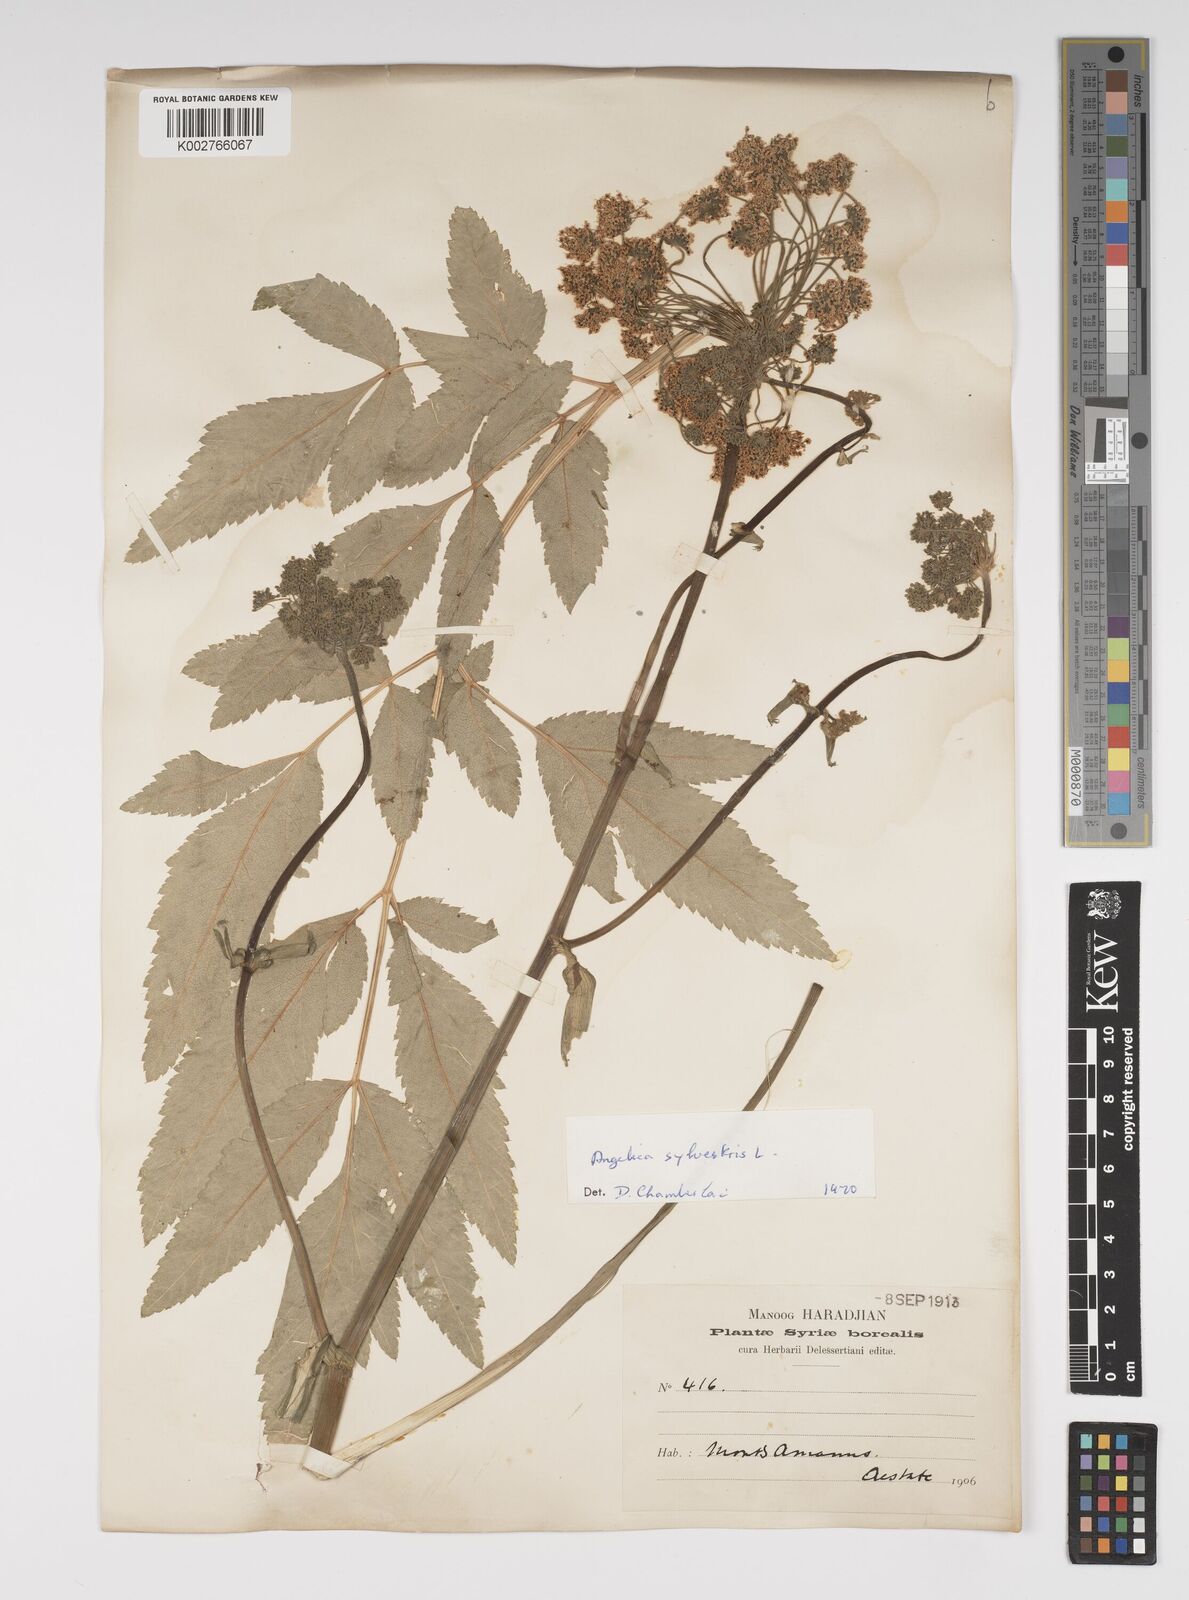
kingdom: Plantae
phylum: Tracheophyta
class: Magnoliopsida
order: Apiales
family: Apiaceae
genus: Angelica
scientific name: Angelica sylvestris
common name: Wild angelica
